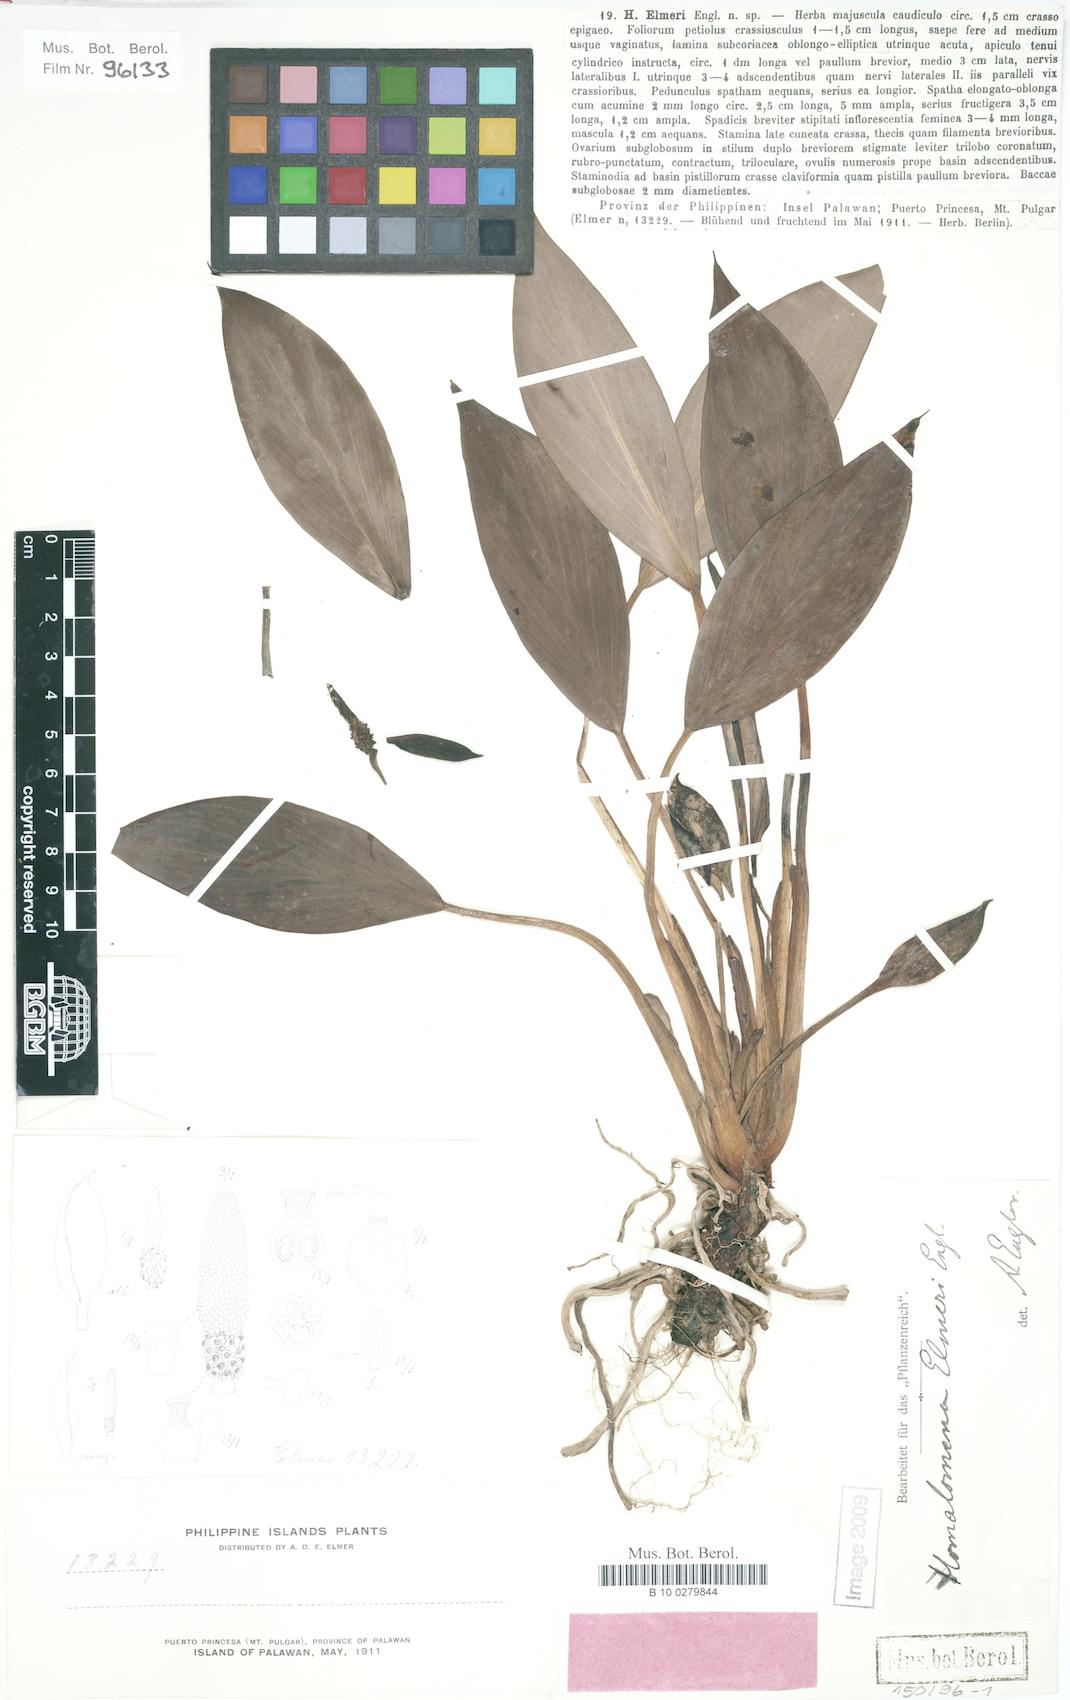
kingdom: Plantae
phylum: Tracheophyta
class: Liliopsida
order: Alismatales
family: Araceae
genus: Homalomena
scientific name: Homalomena palawanensis
